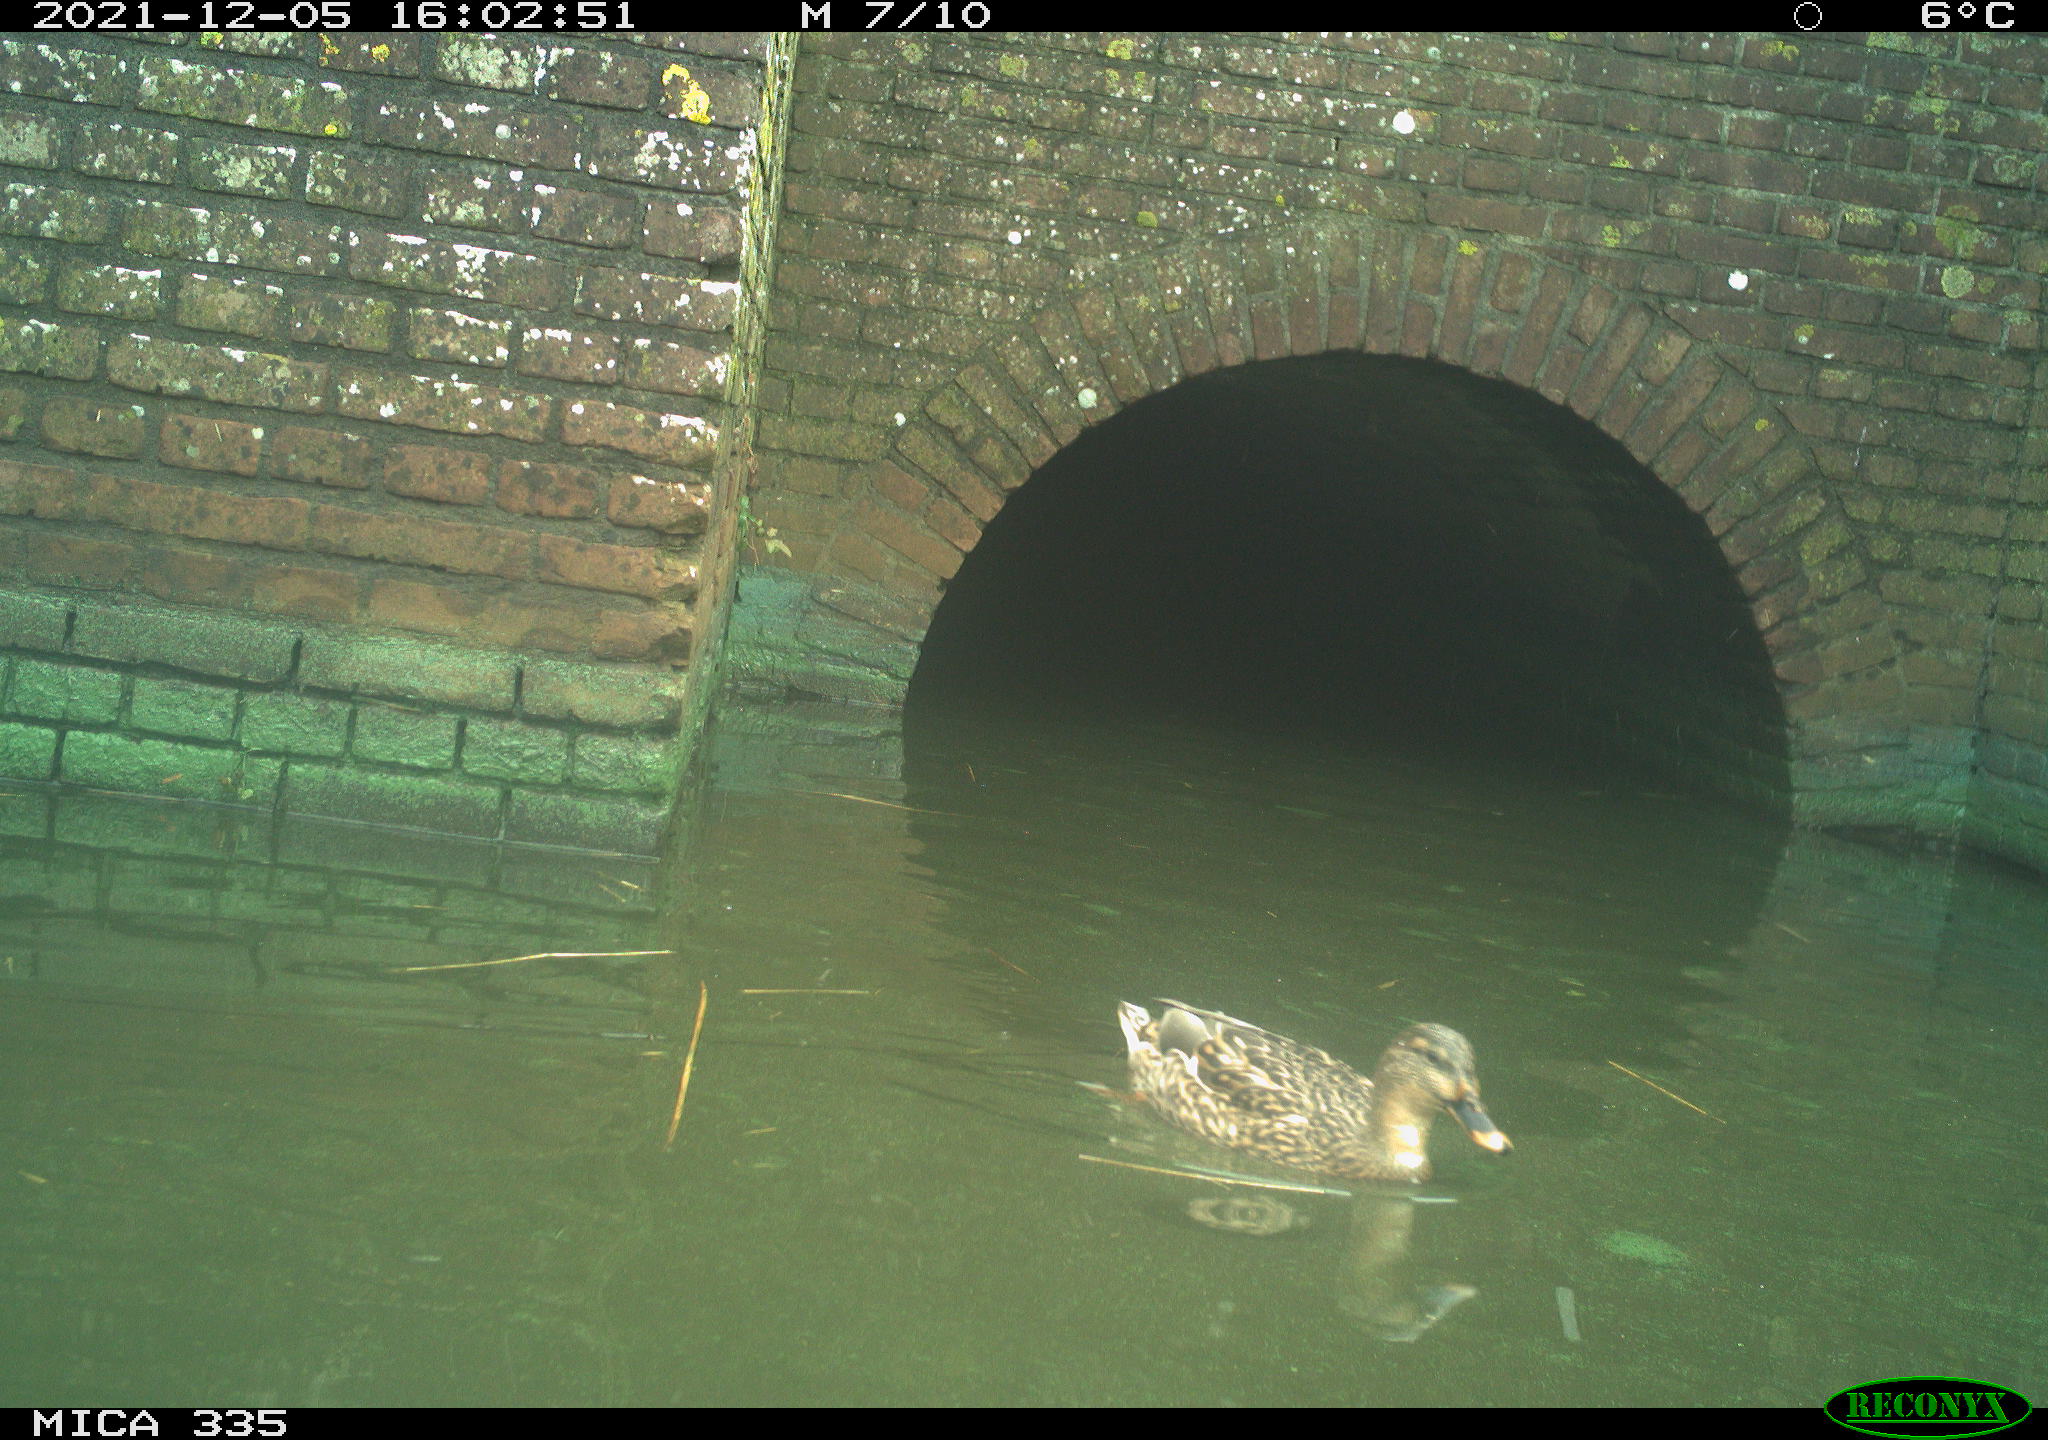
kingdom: Animalia
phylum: Chordata
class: Aves
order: Anseriformes
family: Anatidae
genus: Anas
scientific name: Anas platyrhynchos
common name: Mallard
